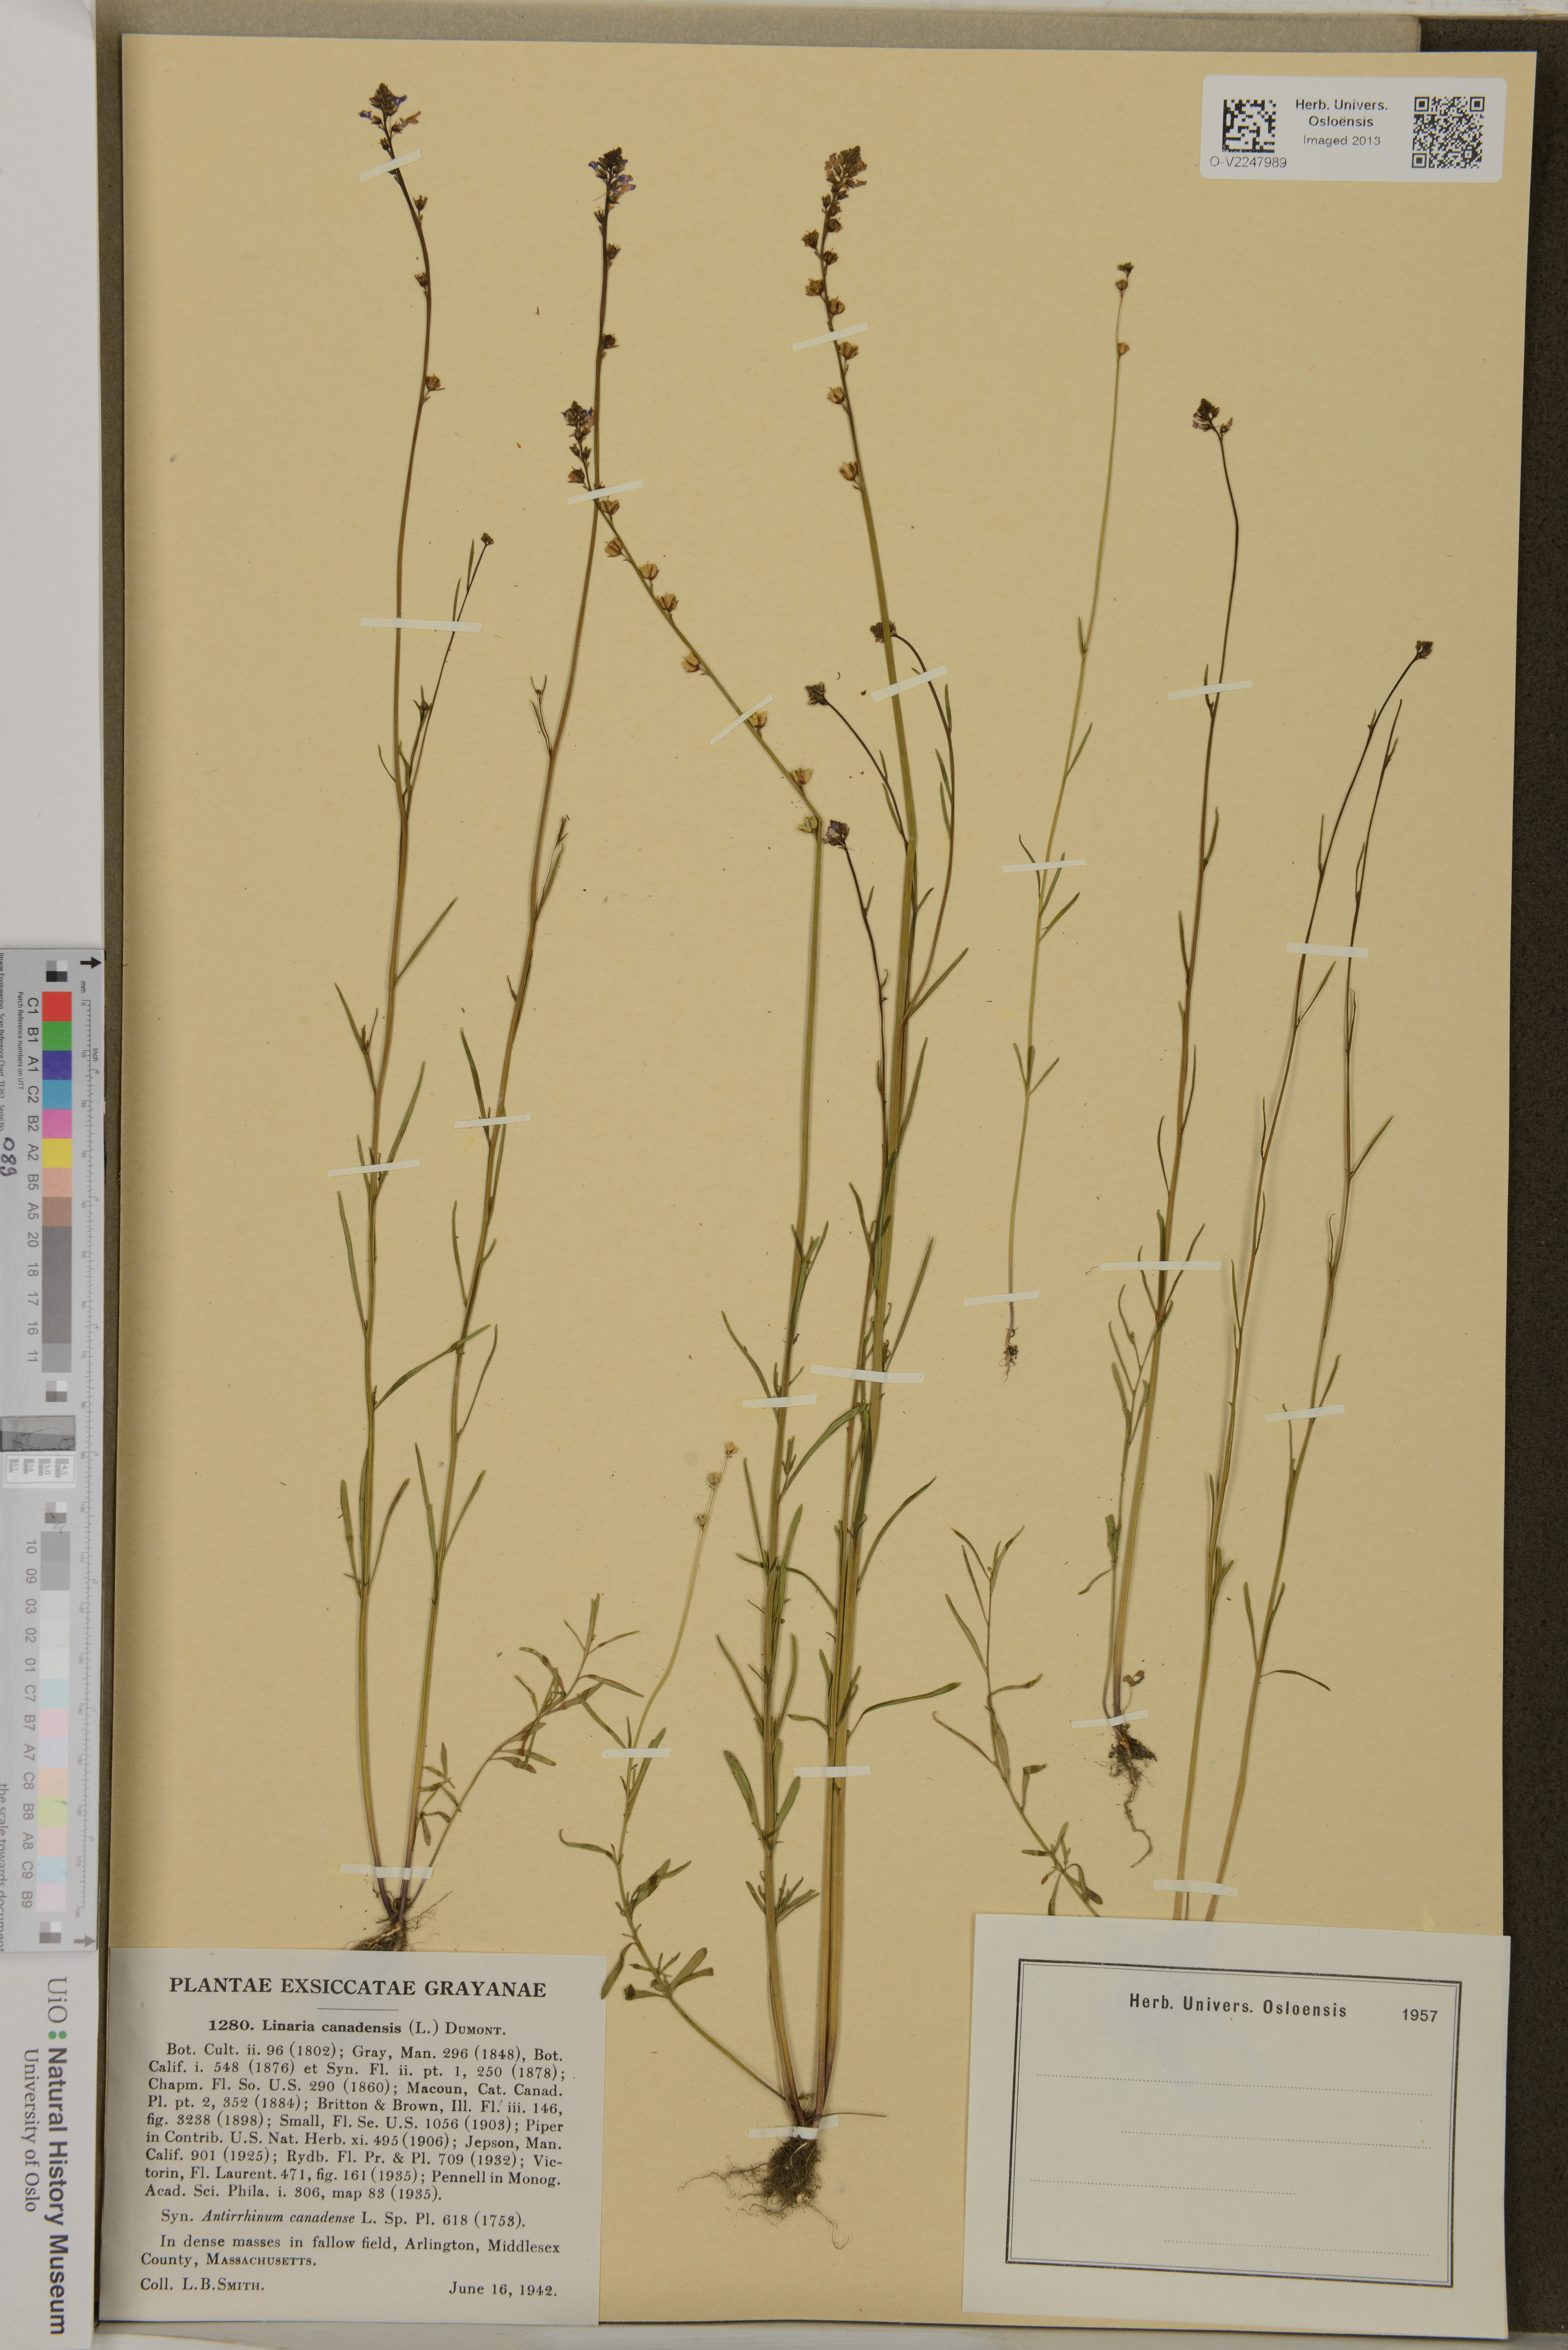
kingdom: Plantae
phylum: Tracheophyta
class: Magnoliopsida
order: Lamiales
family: Plantaginaceae
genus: Nuttallanthus
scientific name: Nuttallanthus canadensis
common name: Blue toadflax
